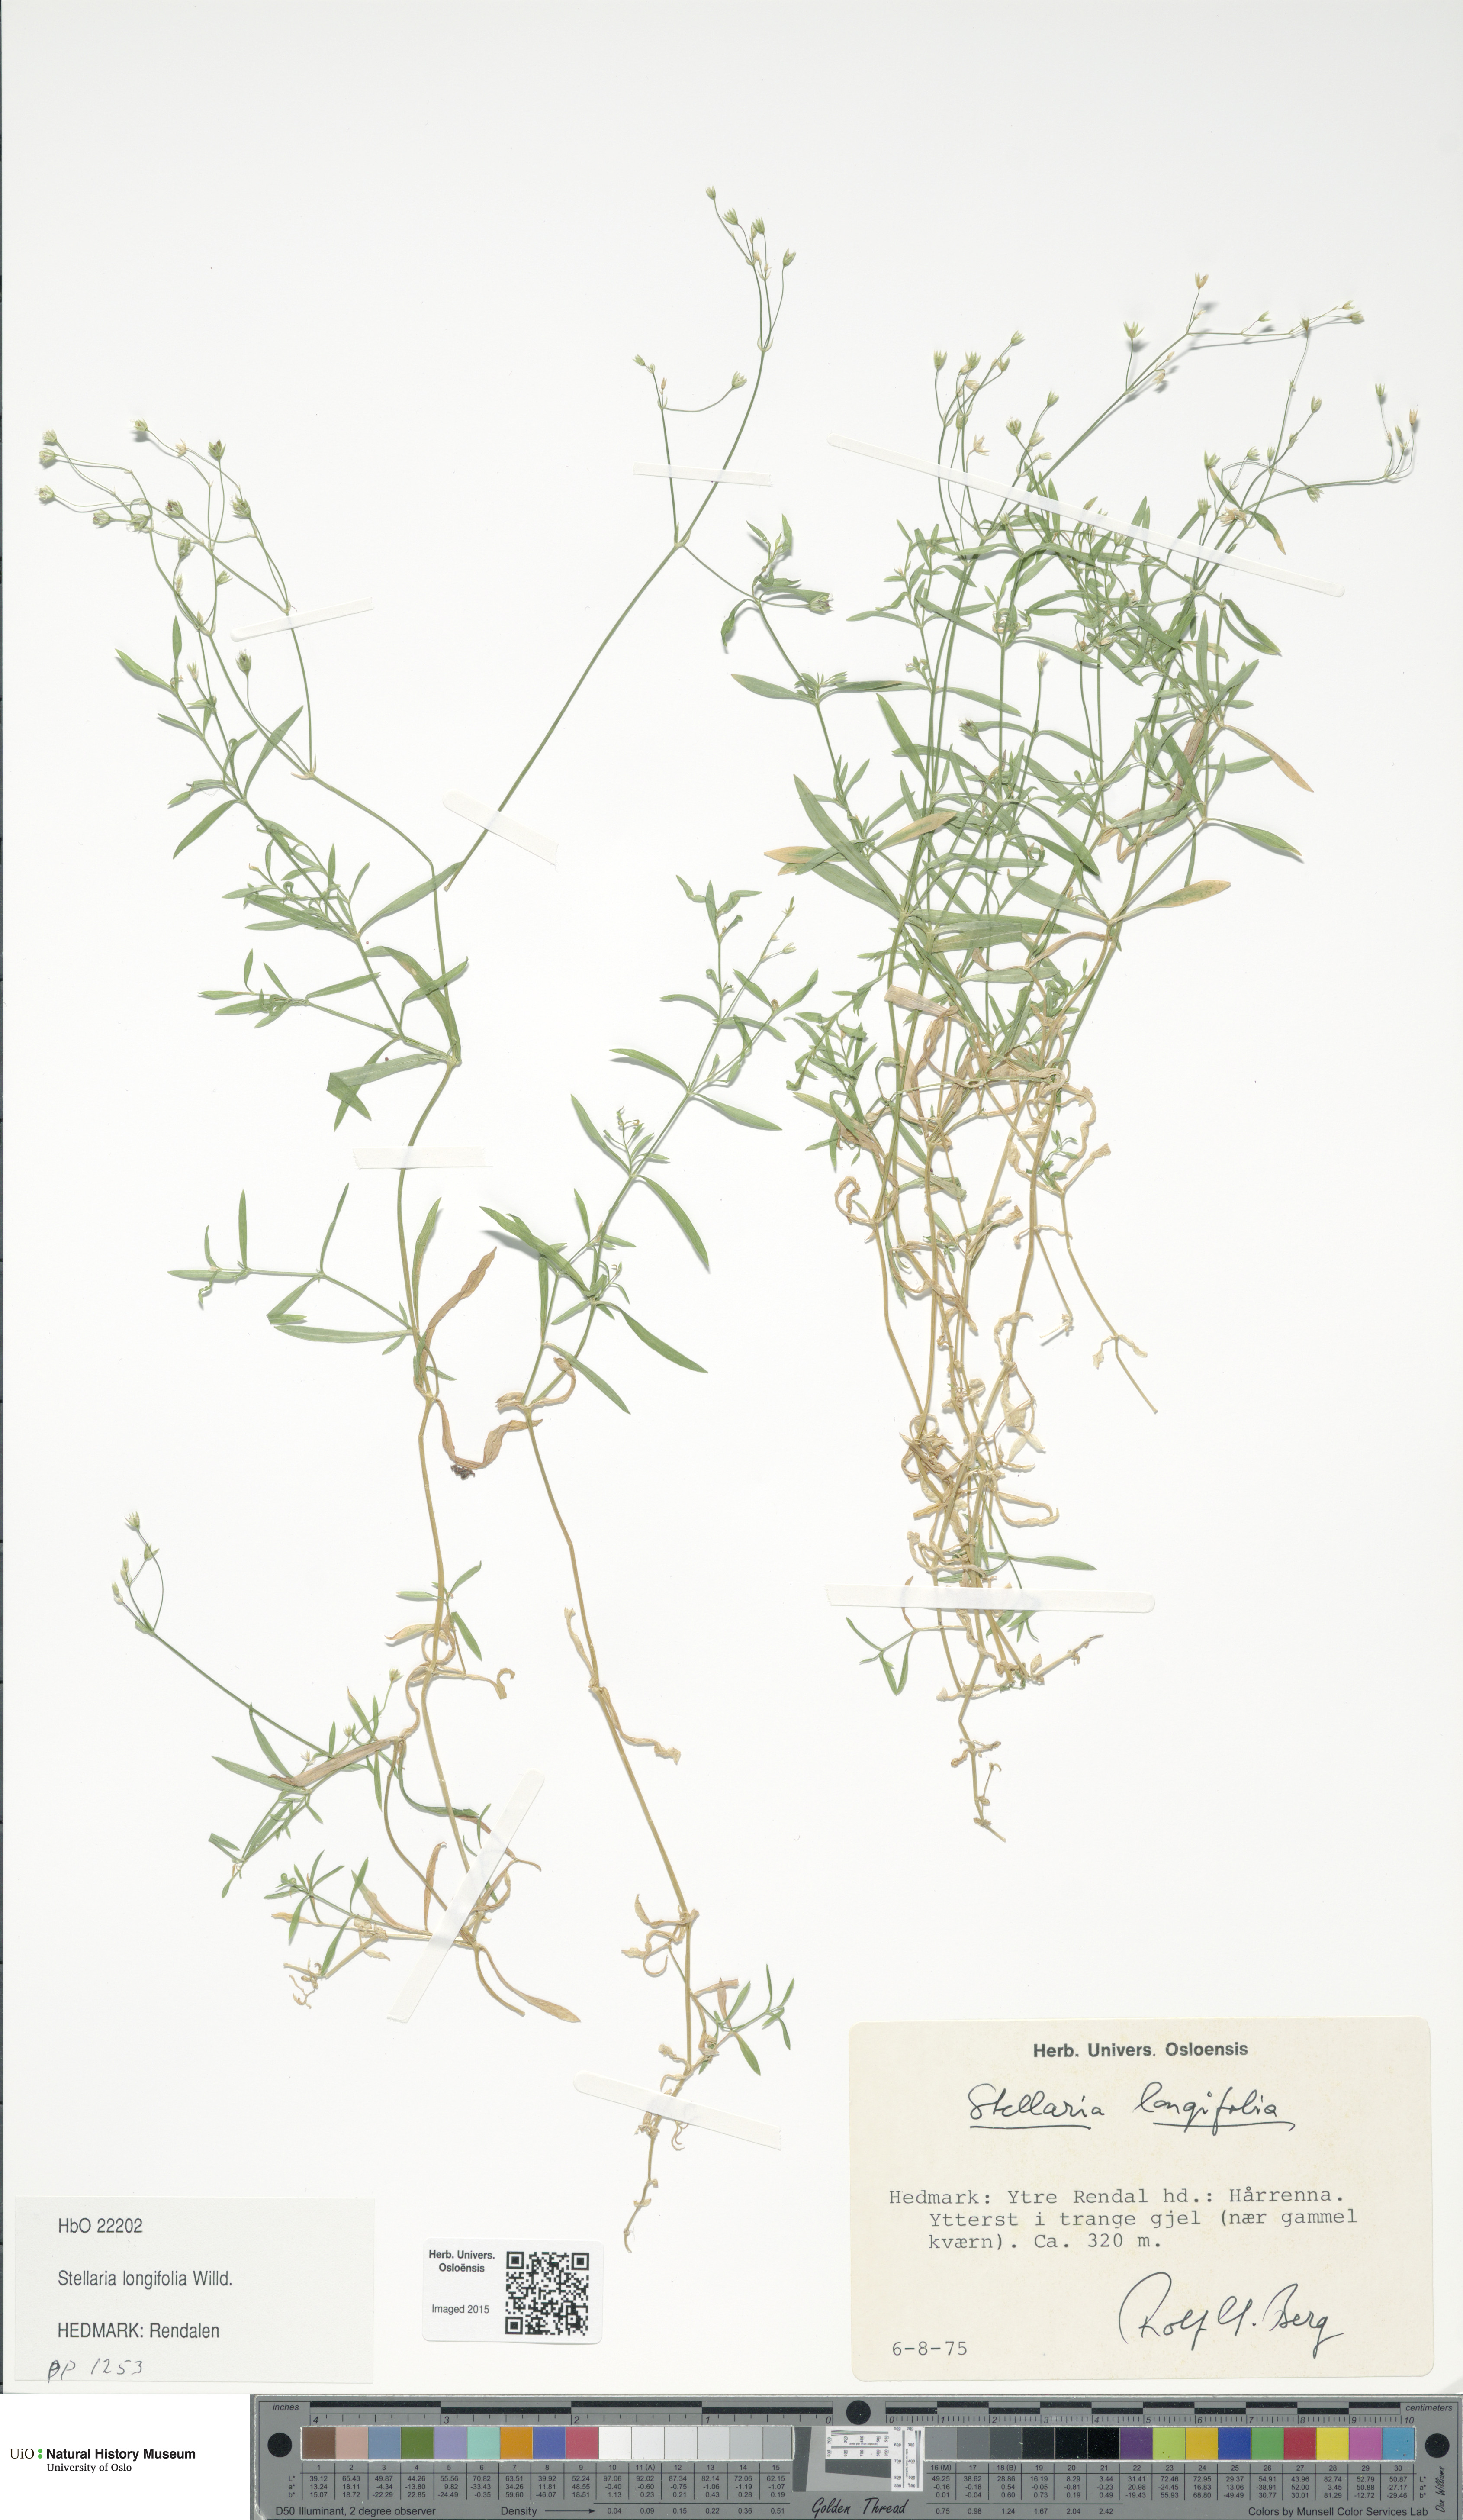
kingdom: Plantae
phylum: Tracheophyta
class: Magnoliopsida
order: Caryophyllales
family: Caryophyllaceae
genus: Stellaria
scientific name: Stellaria longifolia
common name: Long-leaved chickweed
